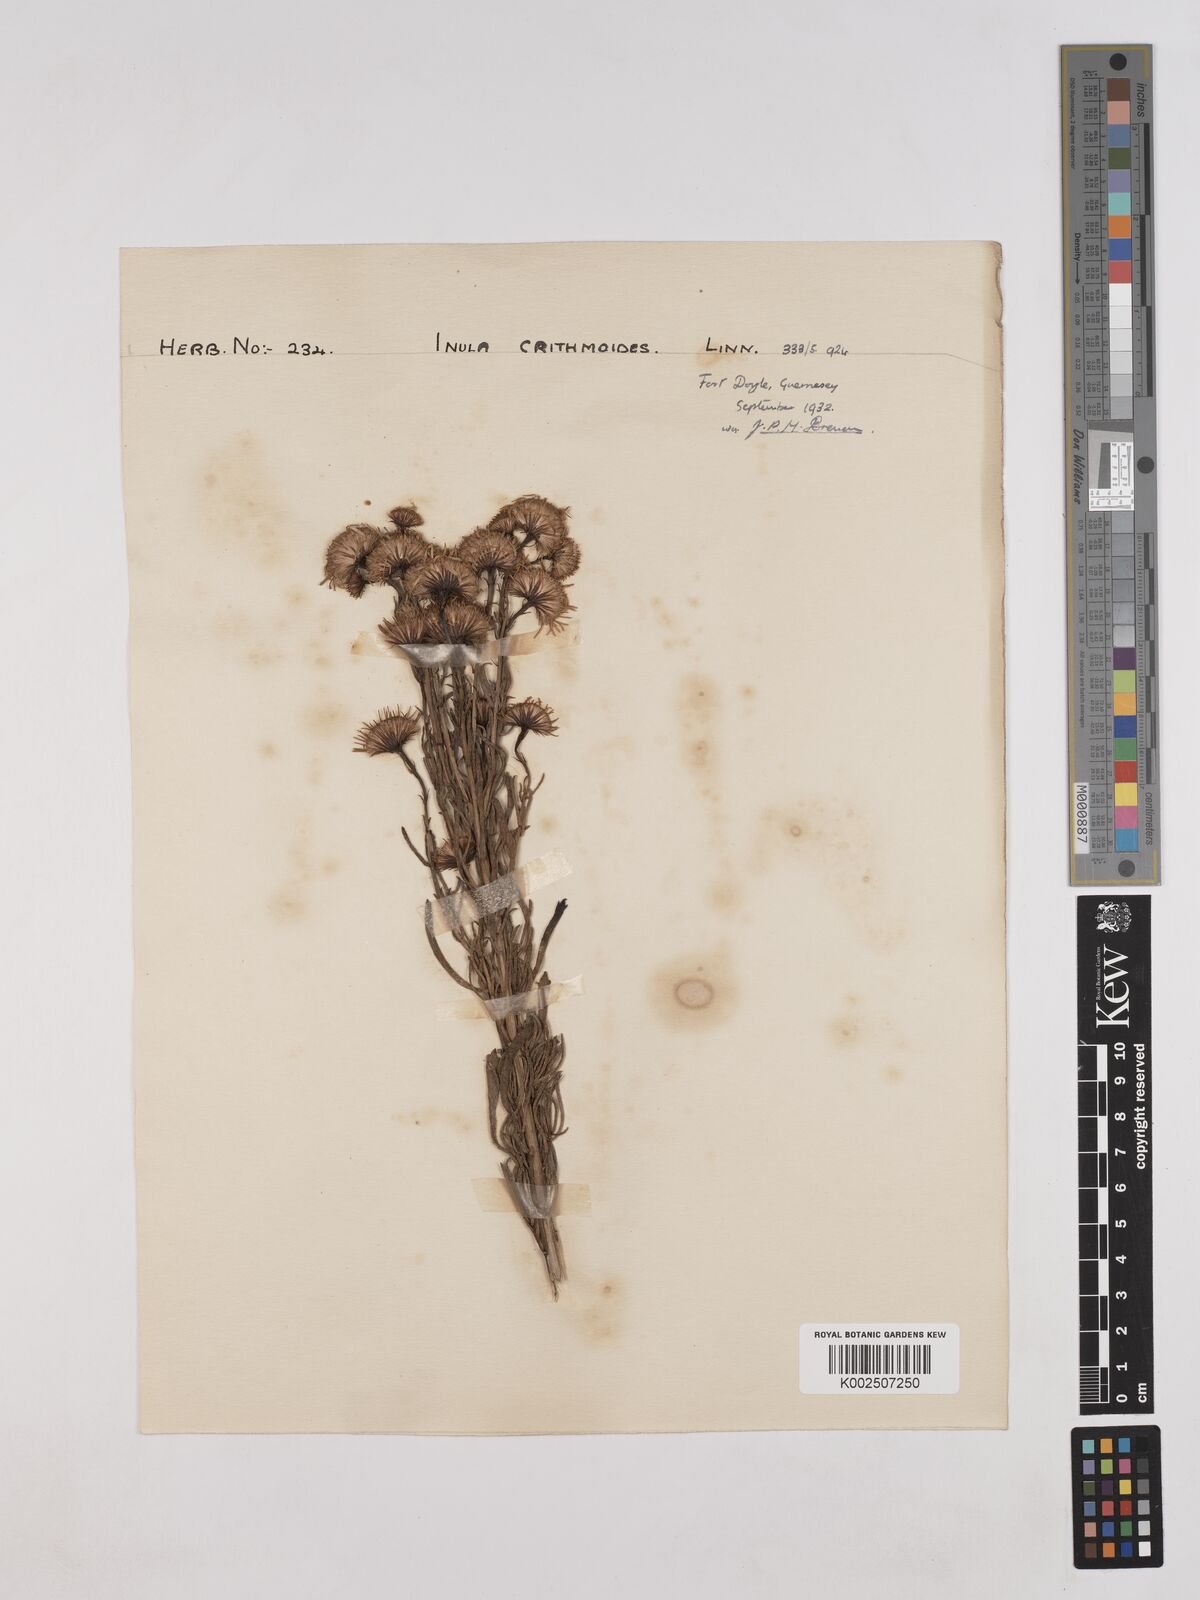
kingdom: Plantae
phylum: Tracheophyta
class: Magnoliopsida
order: Asterales
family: Asteraceae
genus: Limbarda
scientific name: Limbarda crithmoides
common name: Golden samphire
